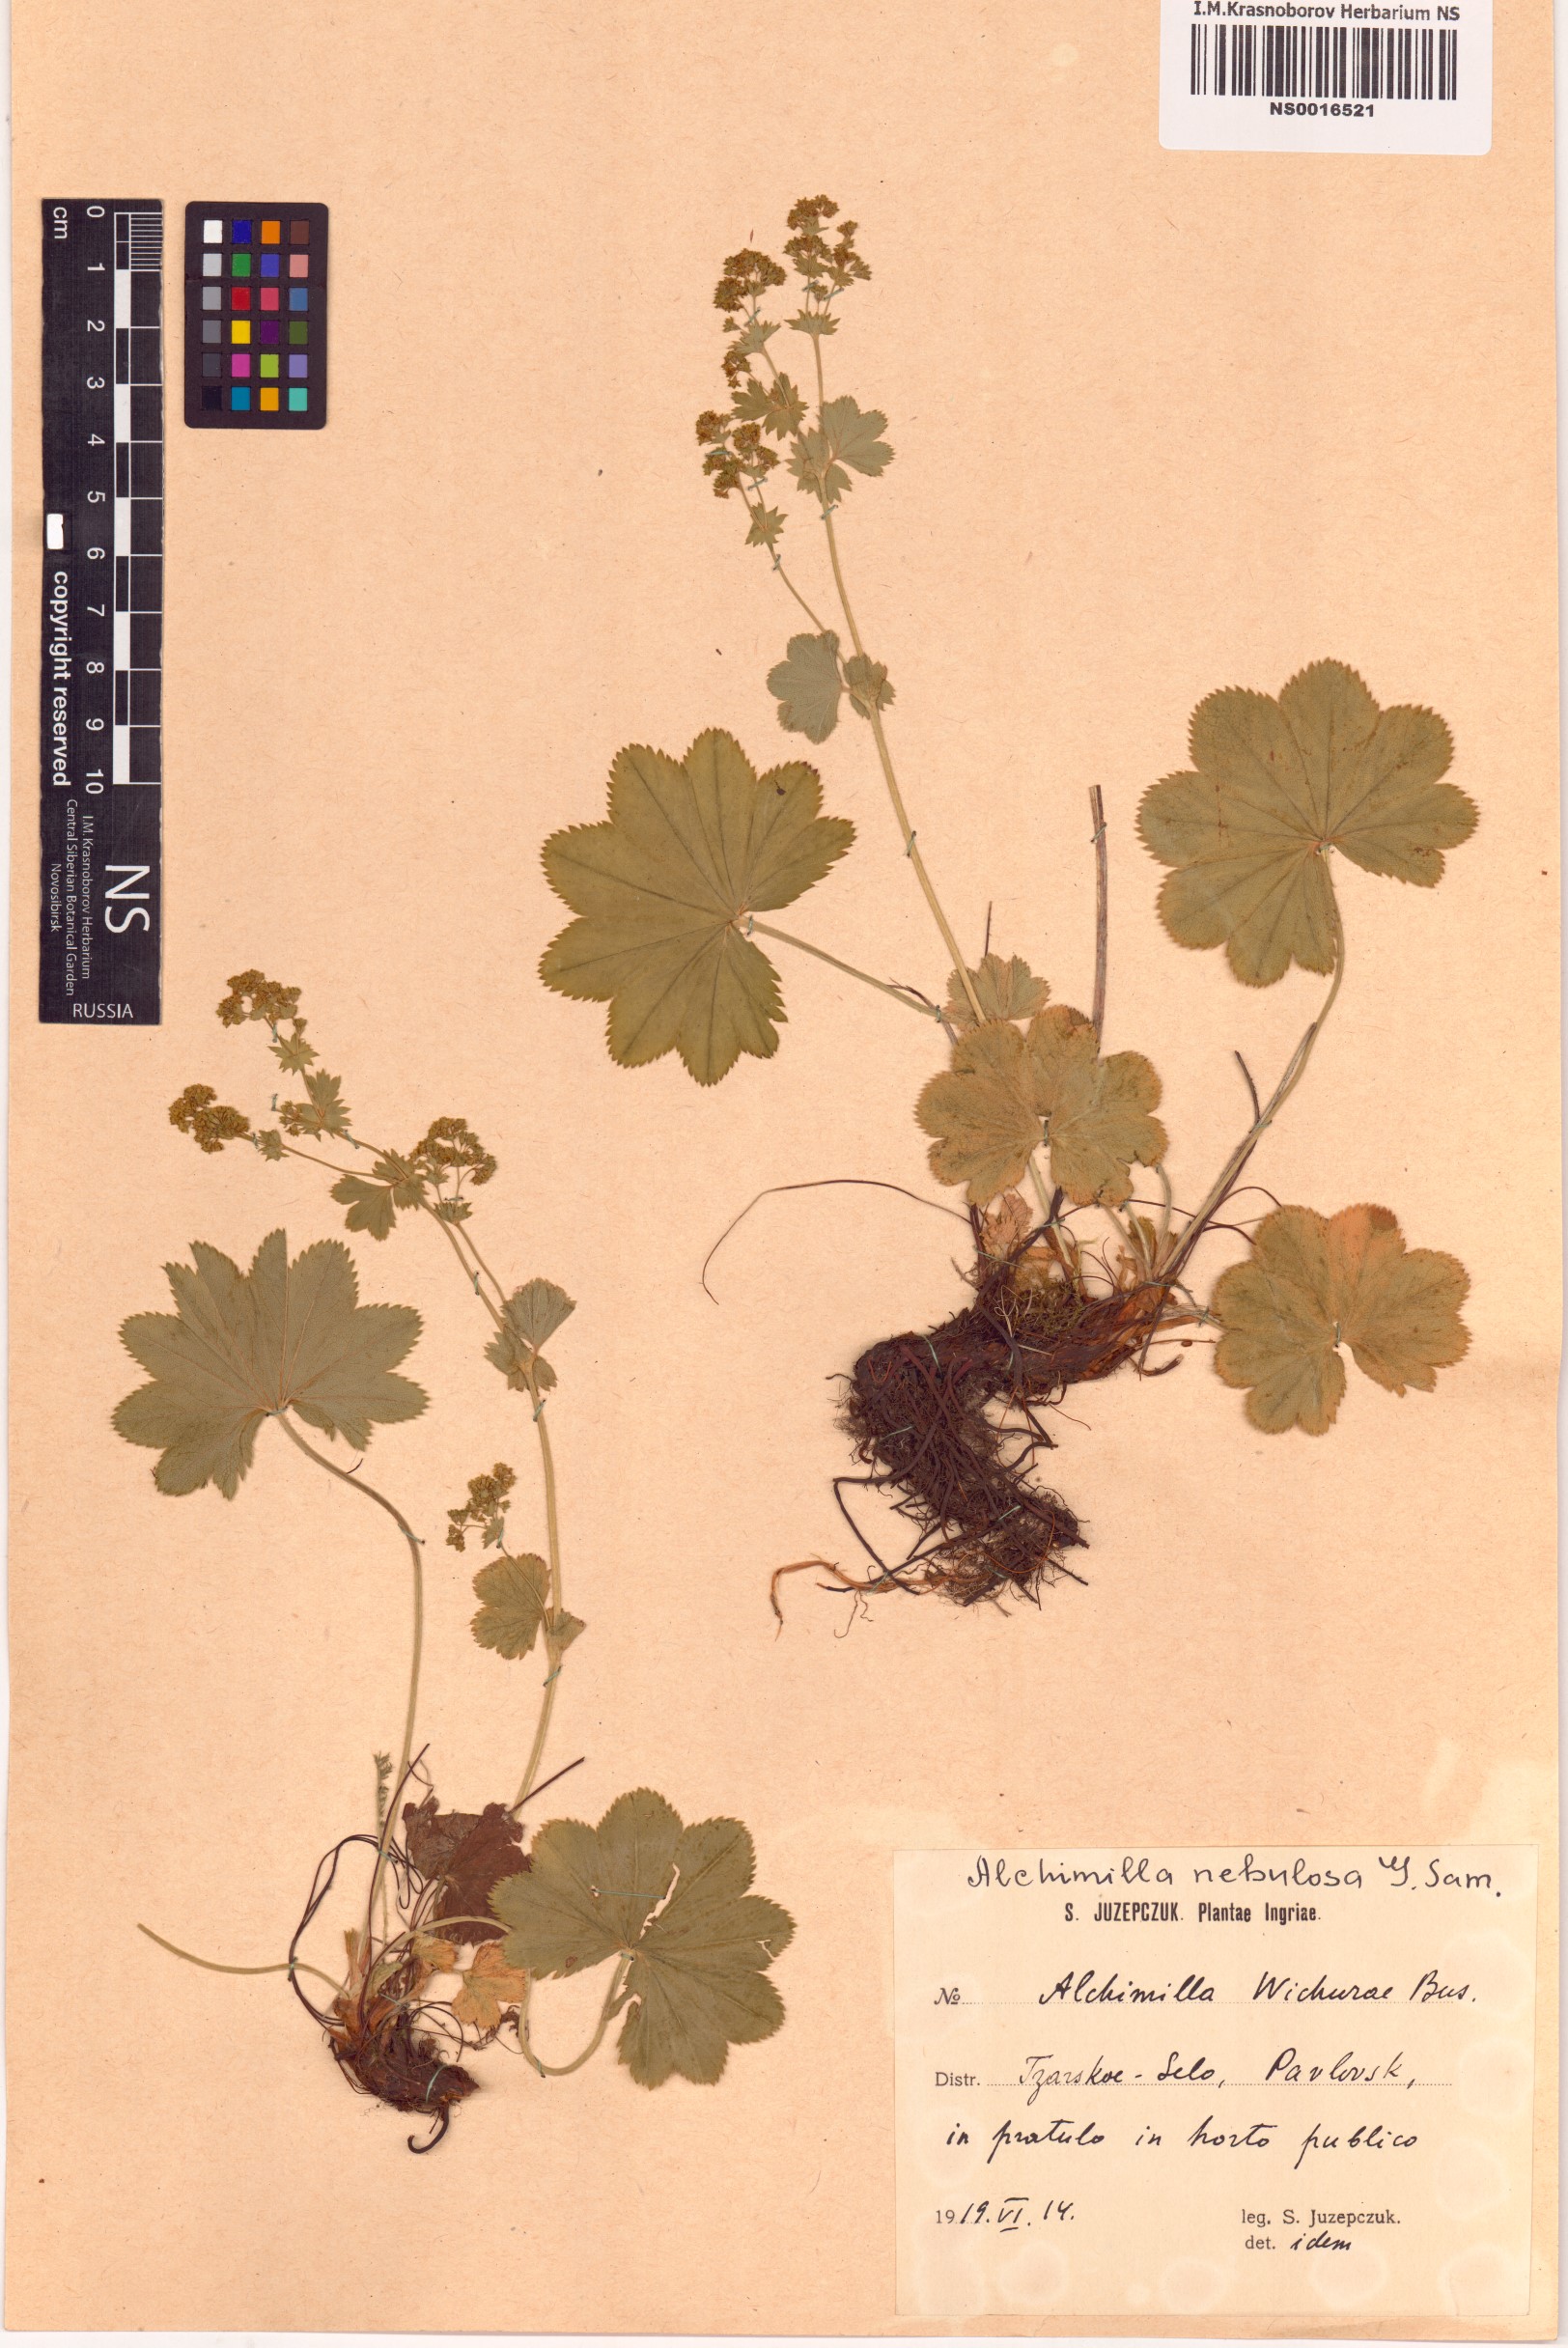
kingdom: Plantae
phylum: Tracheophyta
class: Magnoliopsida
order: Rosales
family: Rosaceae
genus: Alchemilla
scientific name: Alchemilla baltica
